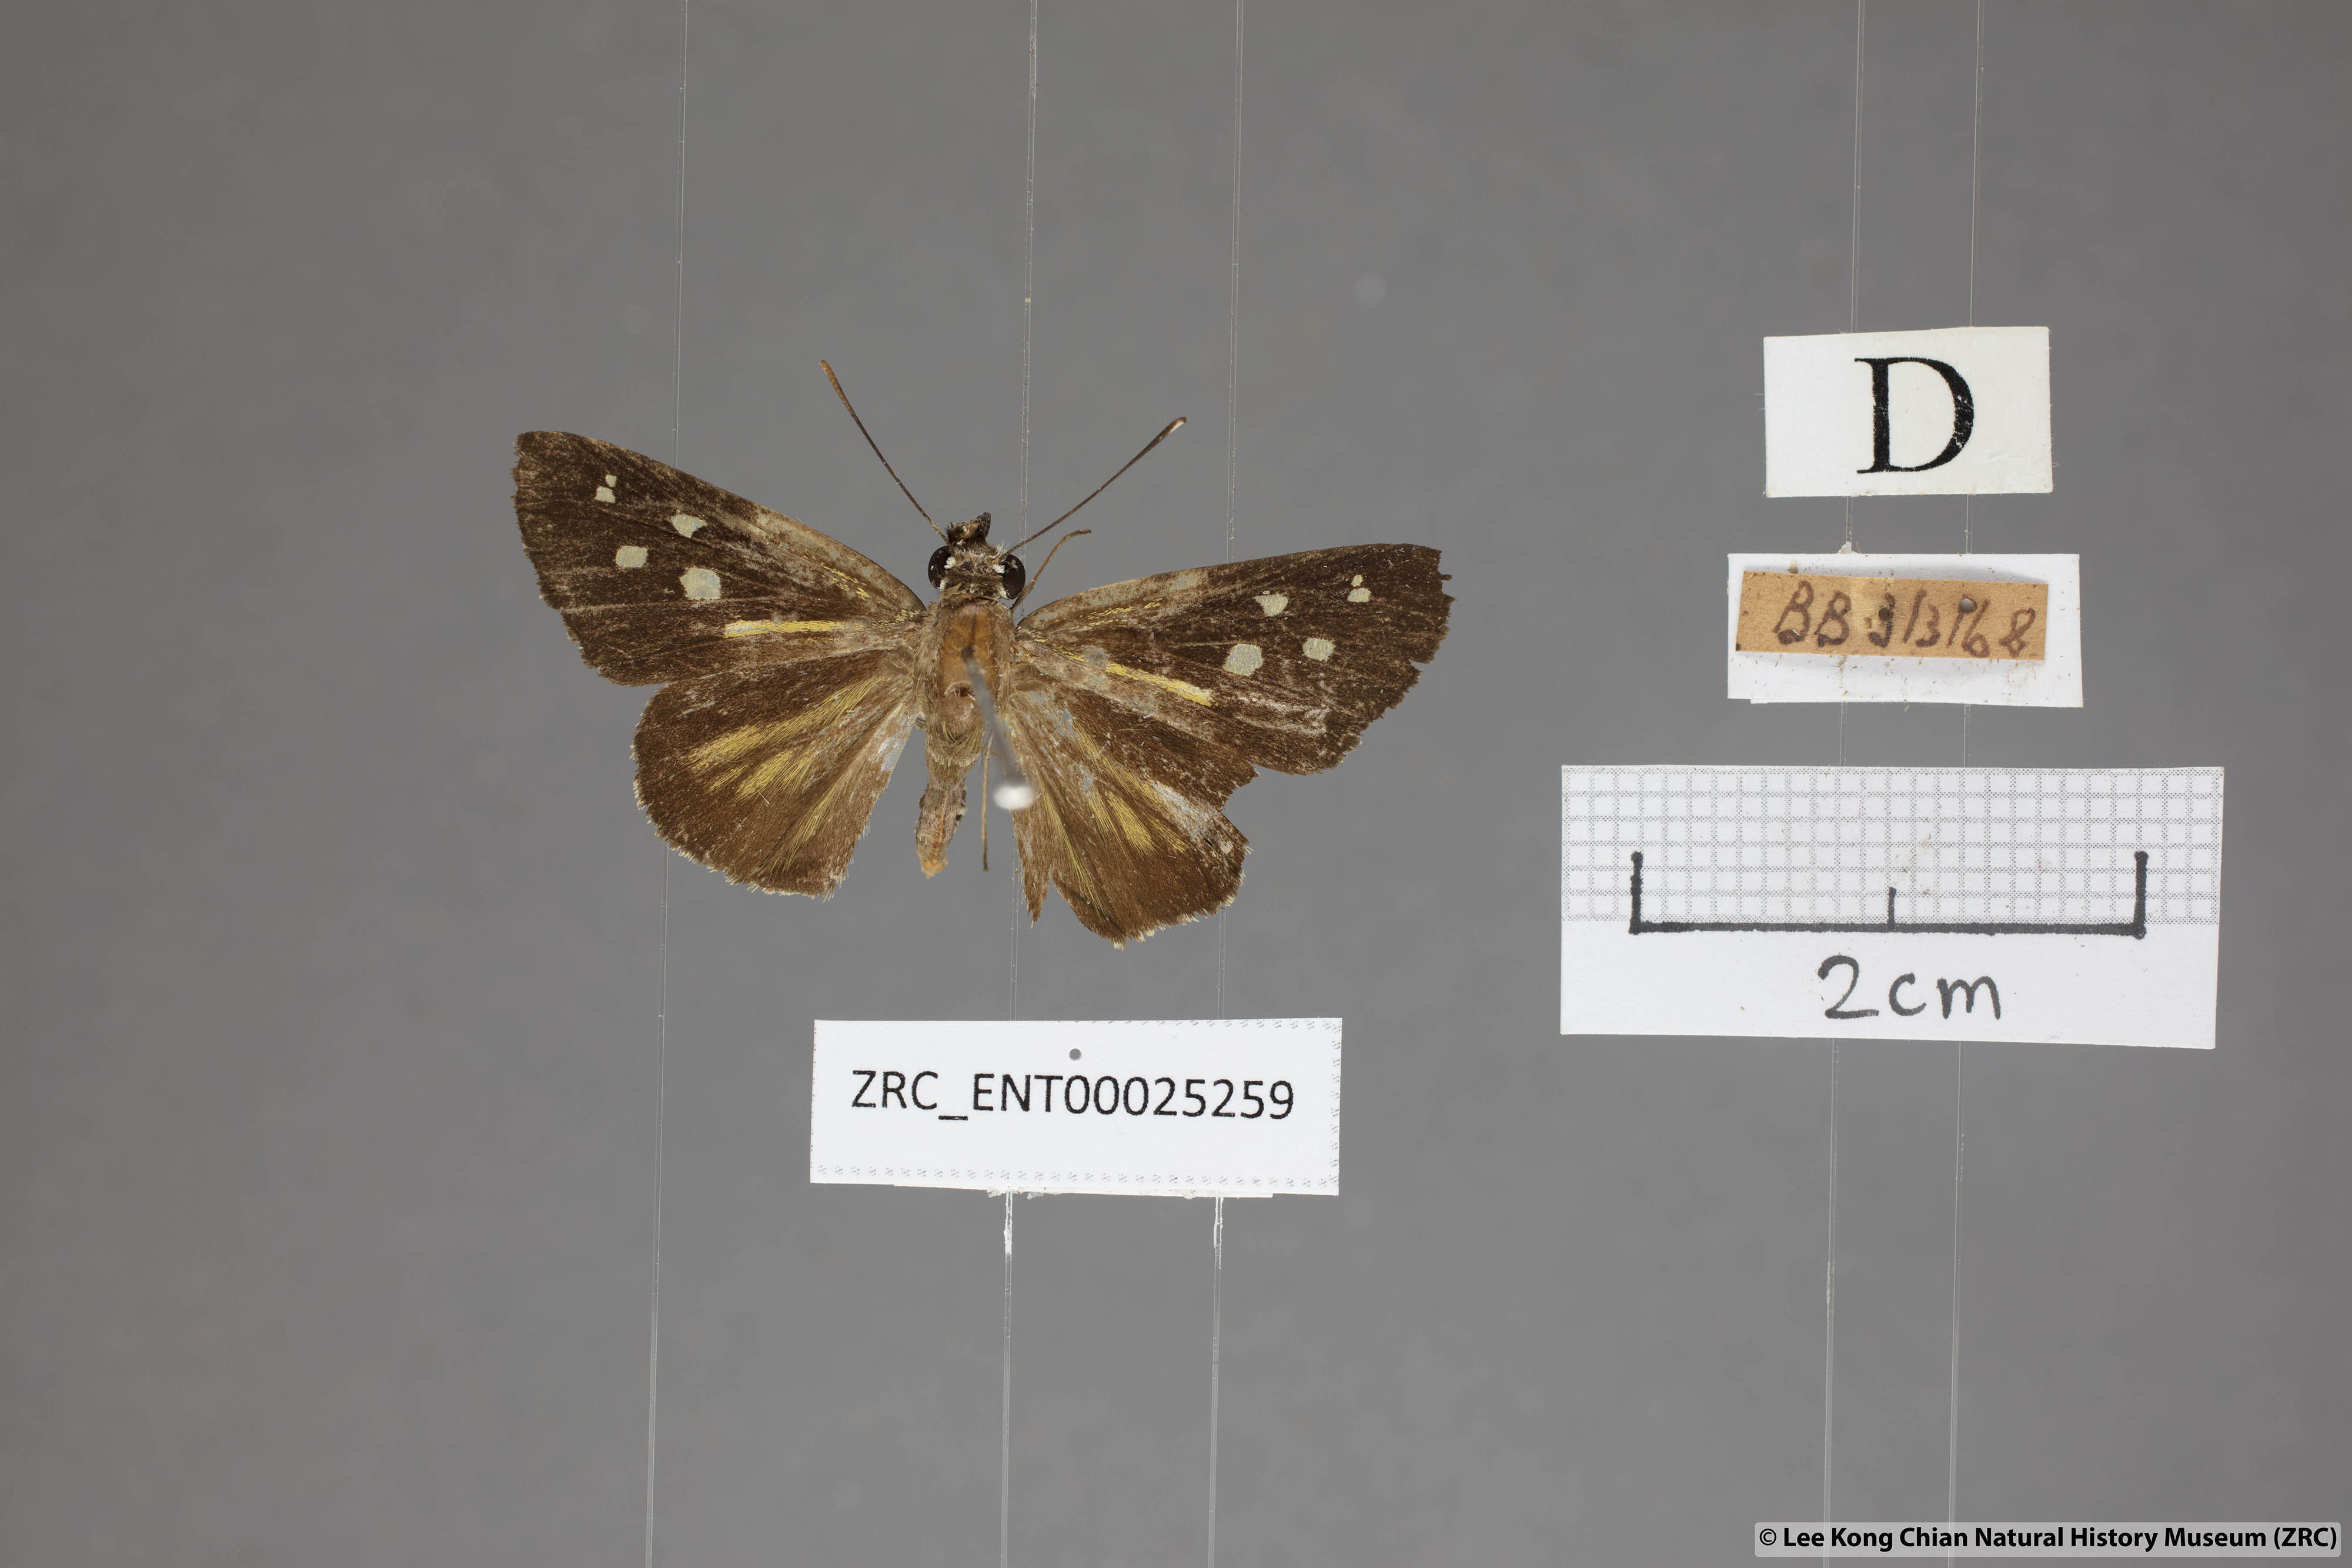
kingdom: Animalia
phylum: Arthropoda
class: Insecta
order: Lepidoptera
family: Hesperiidae
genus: Plastingia
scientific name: Plastingia naga
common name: Chequered lancer
